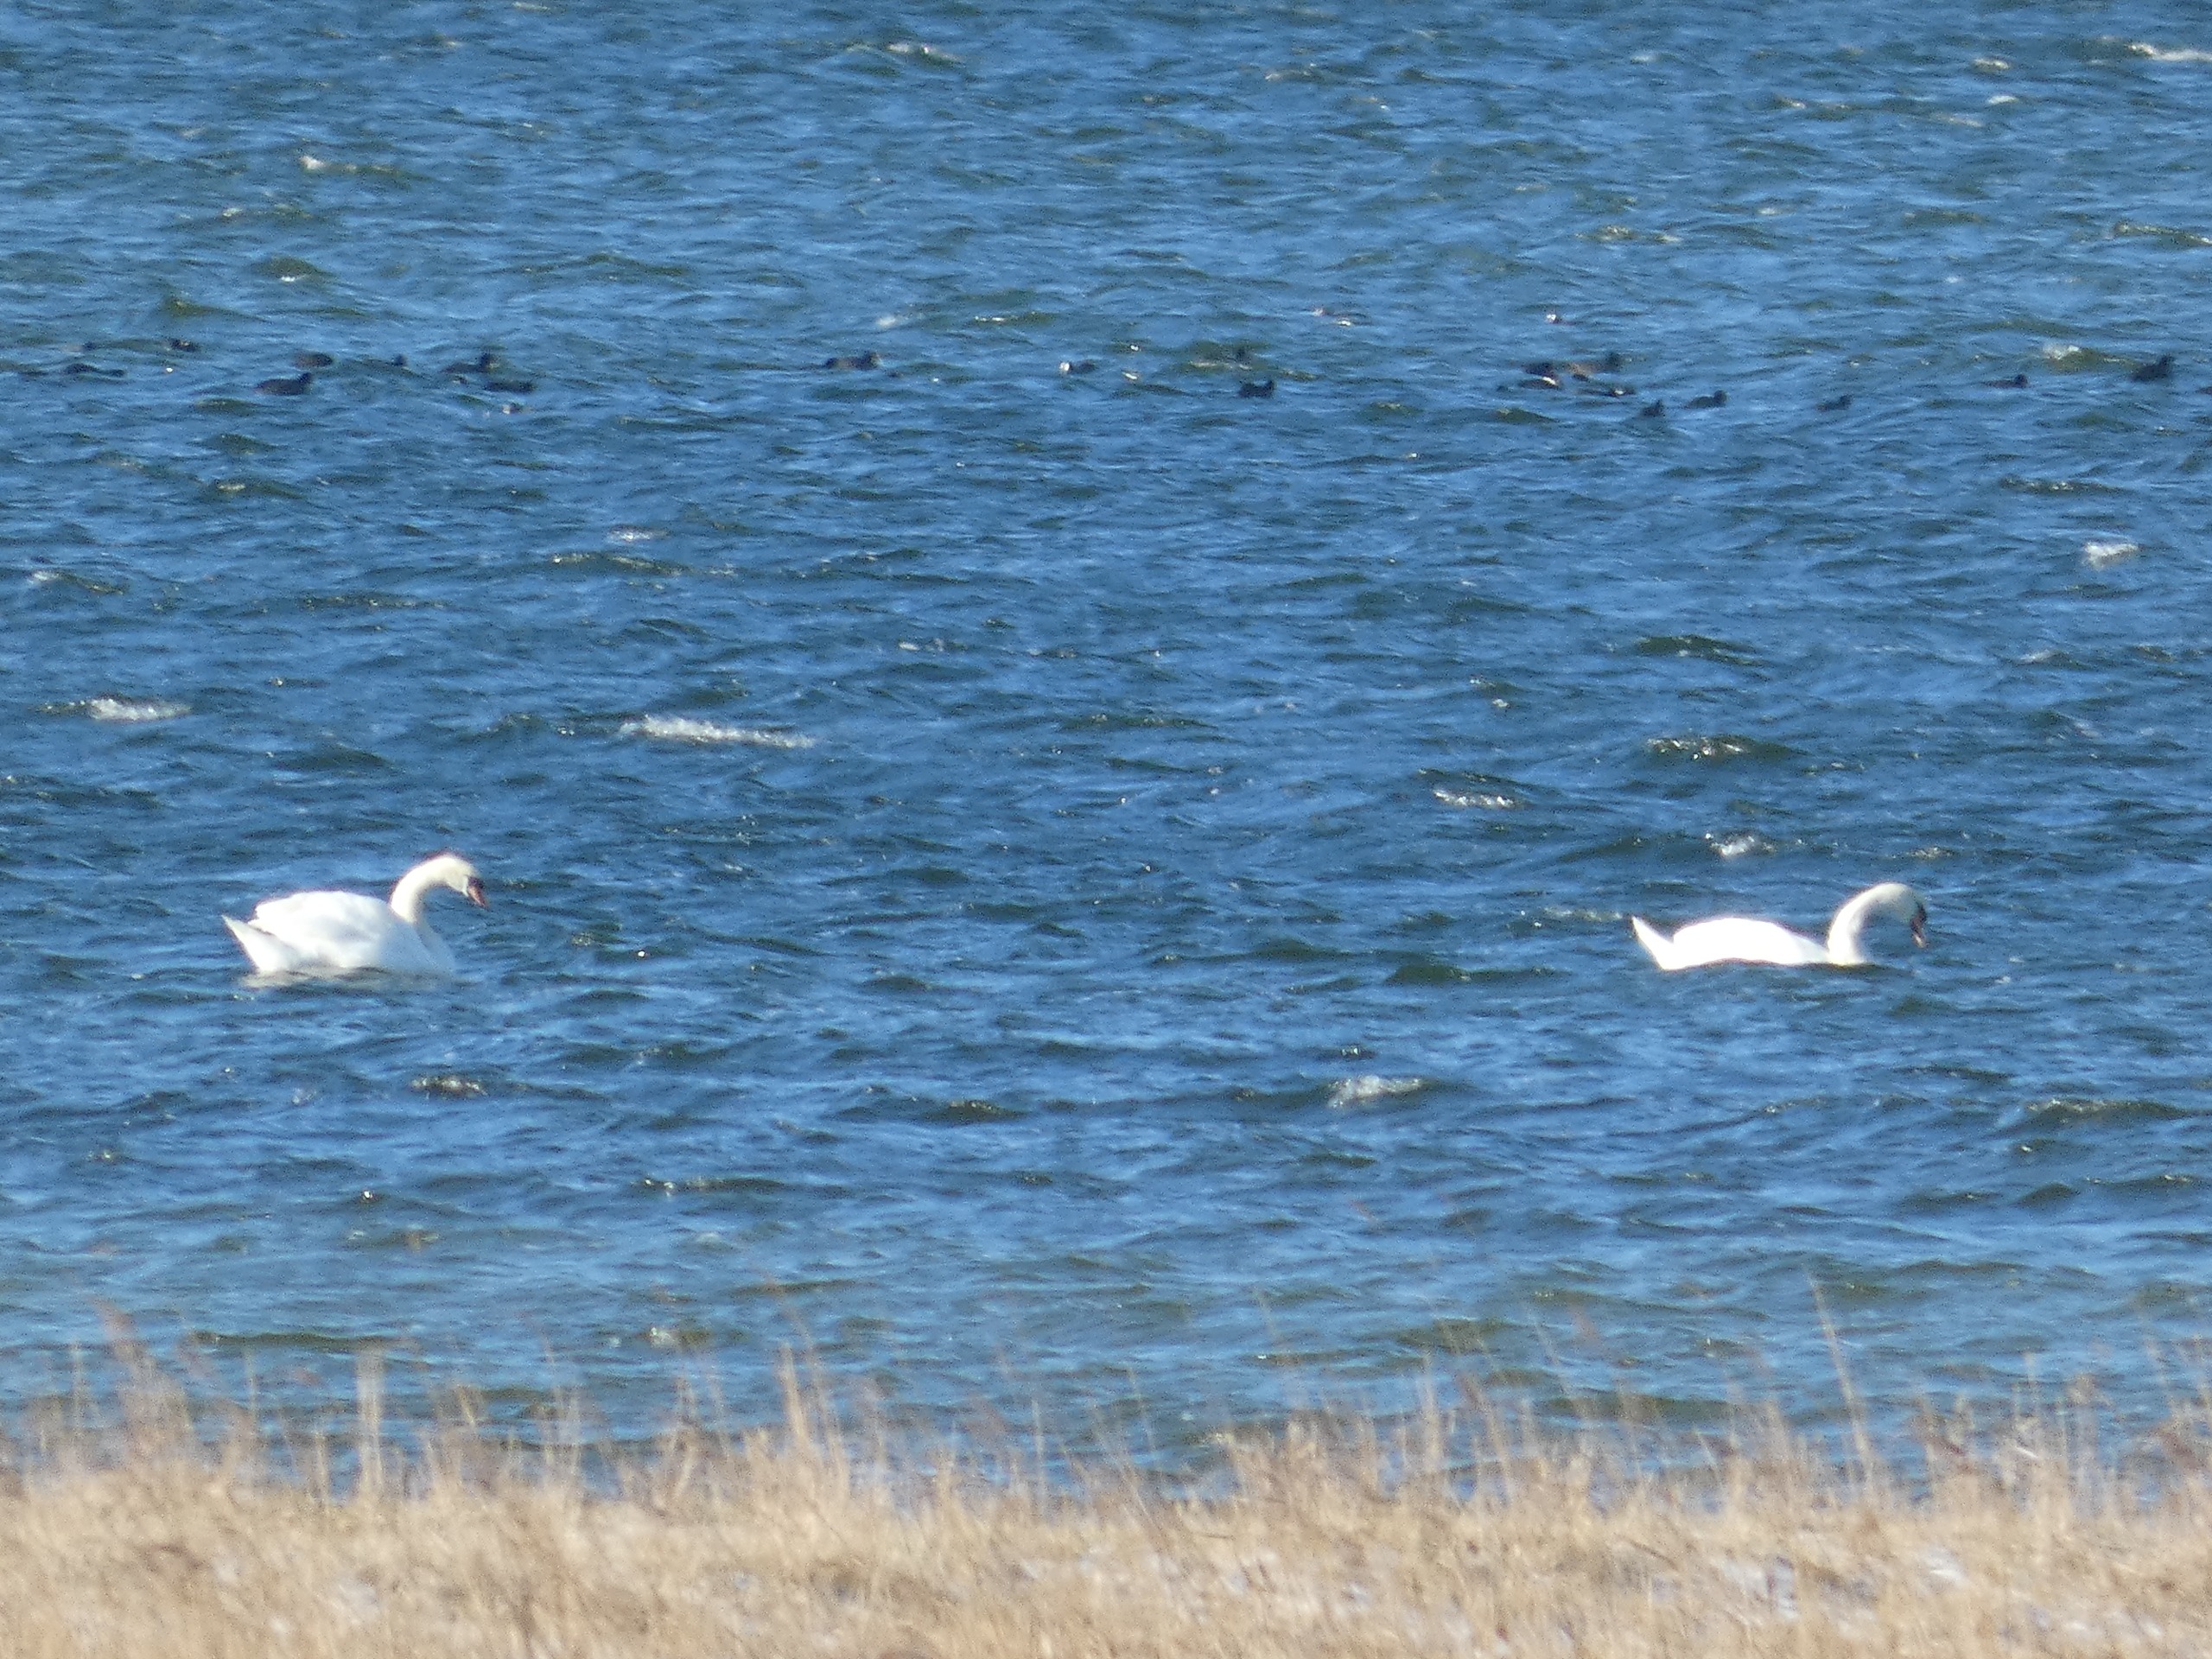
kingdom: Animalia
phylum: Chordata
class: Aves
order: Anseriformes
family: Anatidae
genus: Cygnus
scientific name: Cygnus olor
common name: Knopsvane
